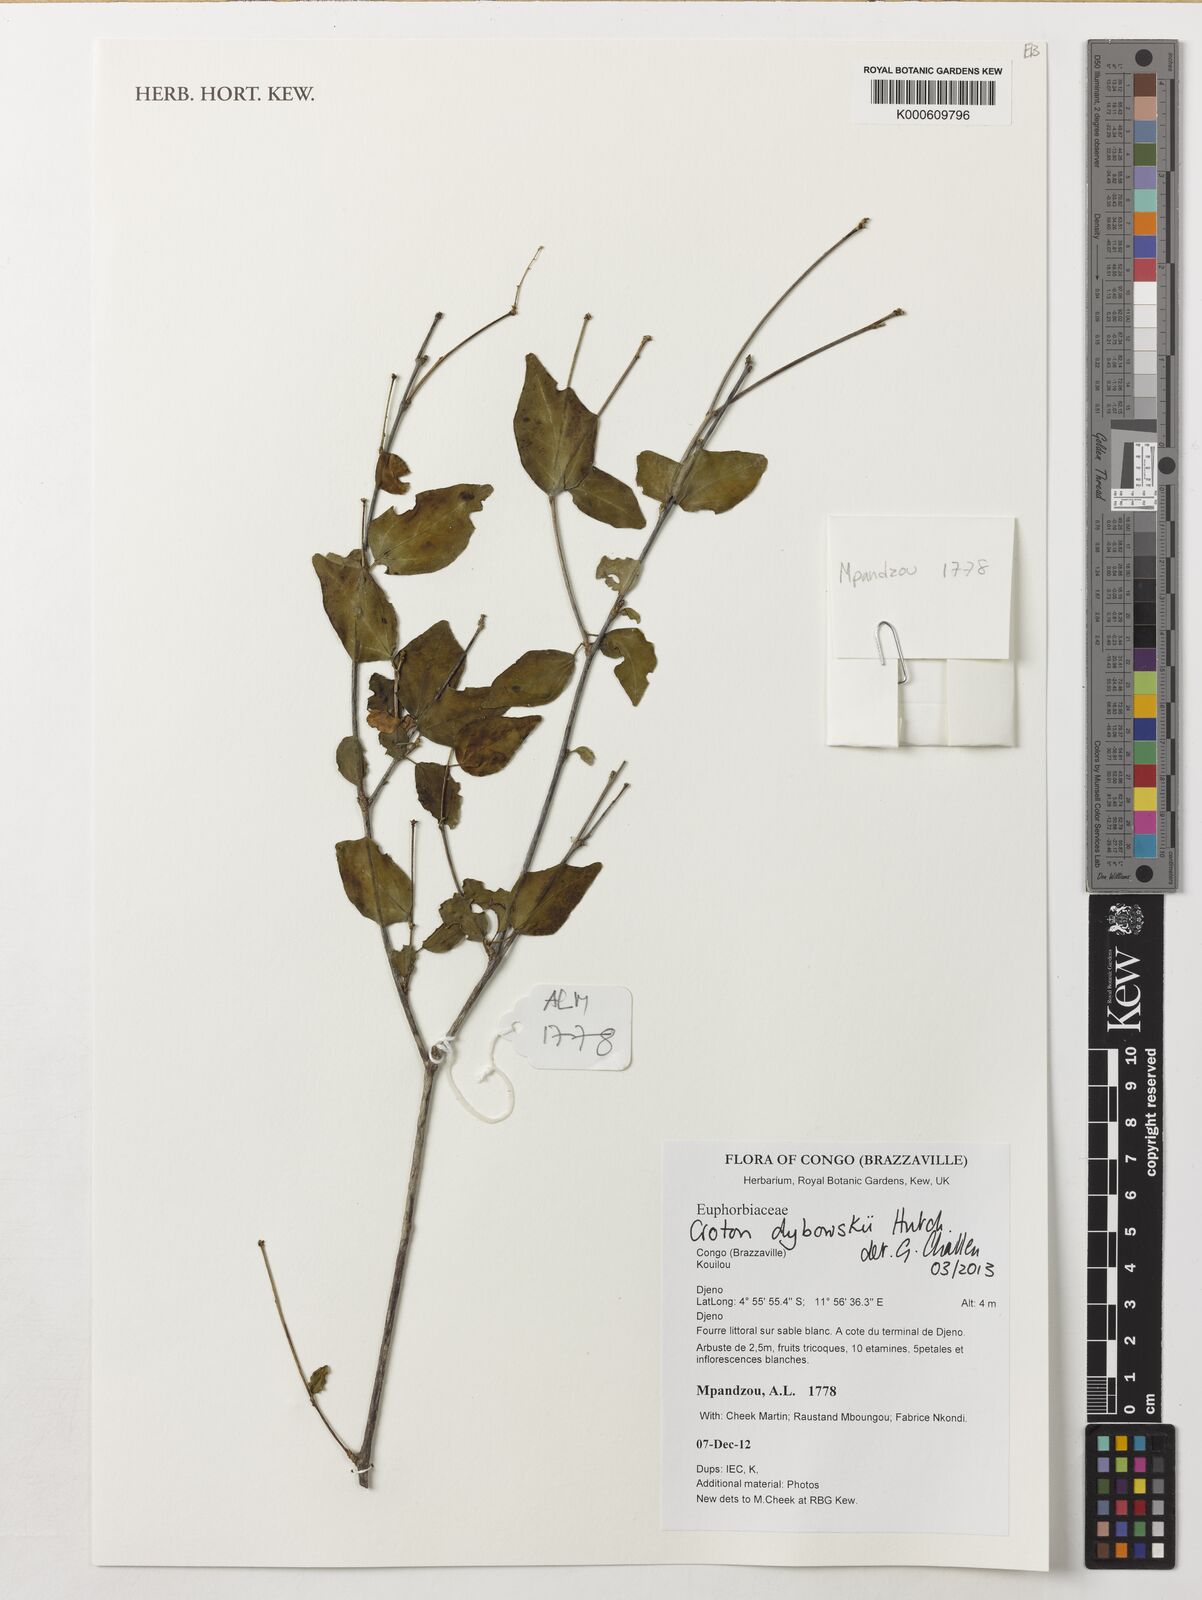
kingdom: Plantae
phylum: Tracheophyta
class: Magnoliopsida
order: Malpighiales
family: Euphorbiaceae
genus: Croton
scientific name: Croton dybowskii
